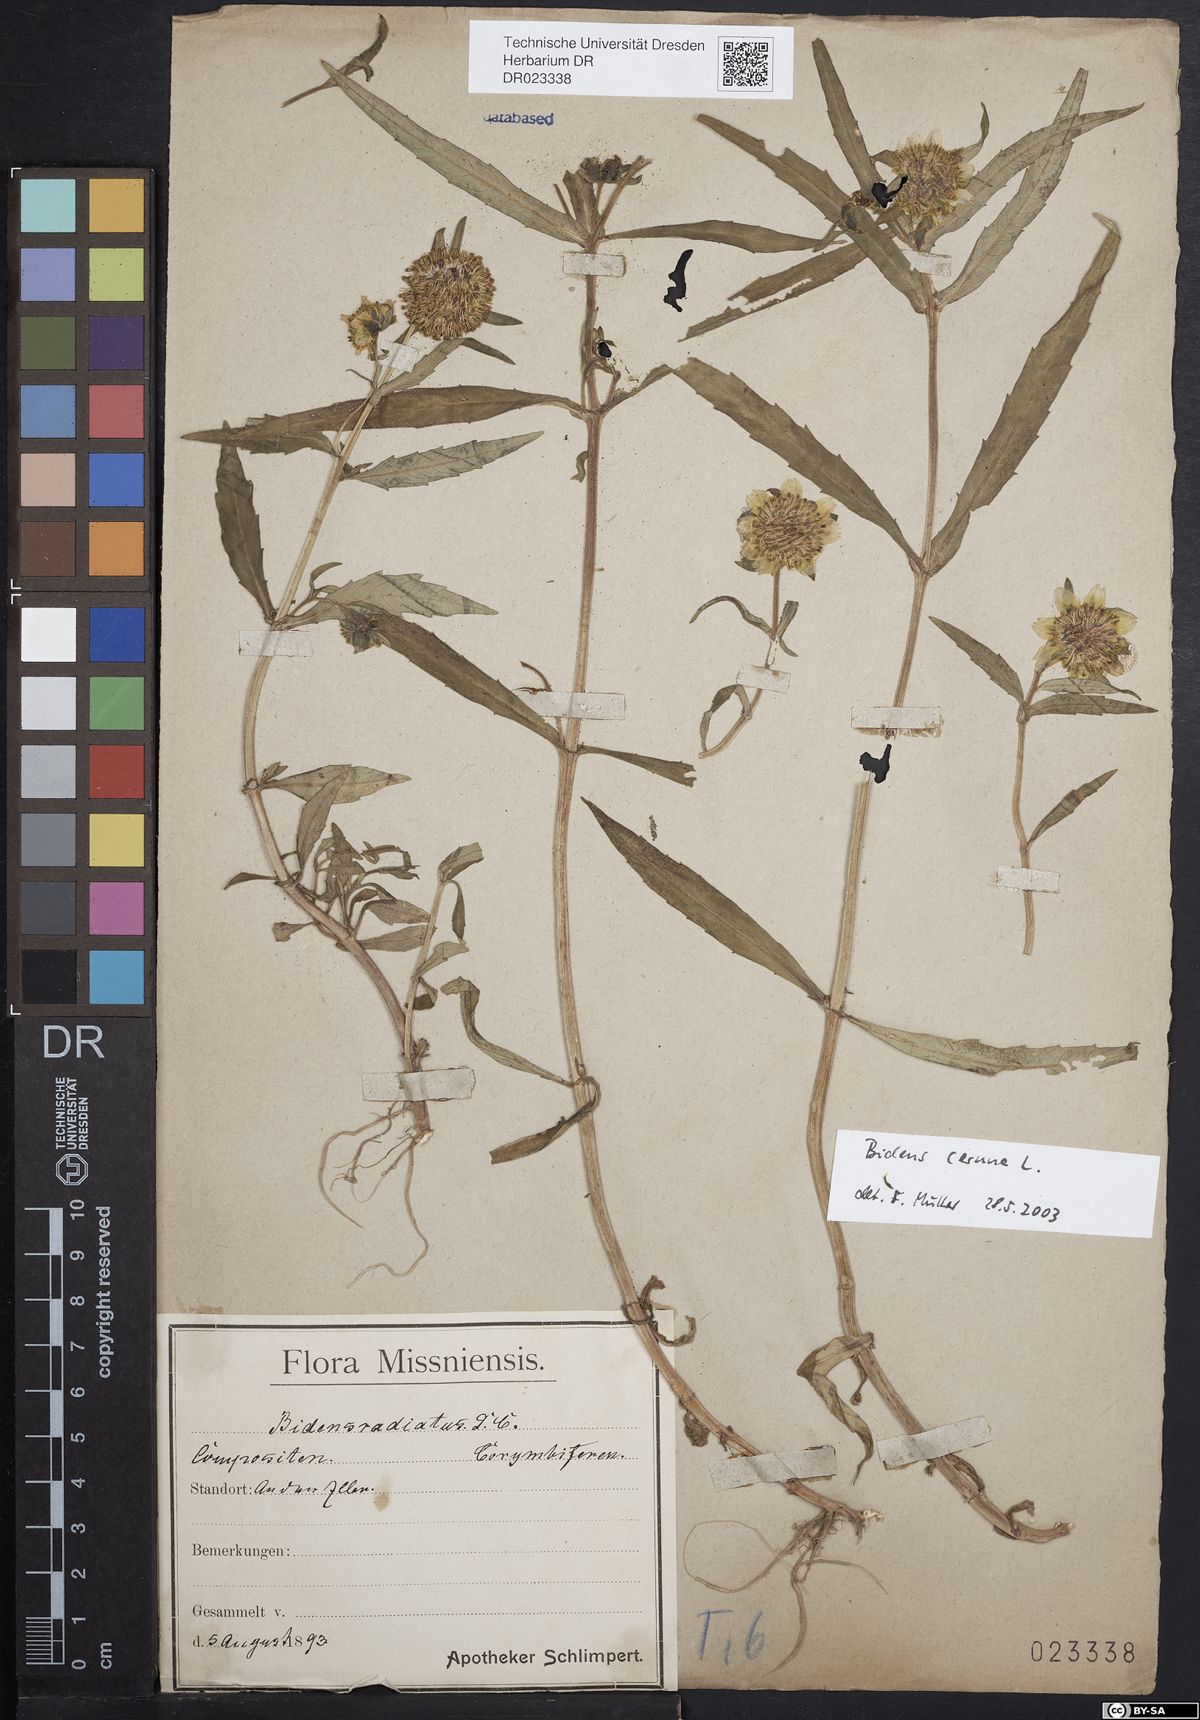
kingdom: Plantae
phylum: Tracheophyta
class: Magnoliopsida
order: Asterales
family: Asteraceae
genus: Bidens
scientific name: Bidens cernua
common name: Nodding bur-marigold
